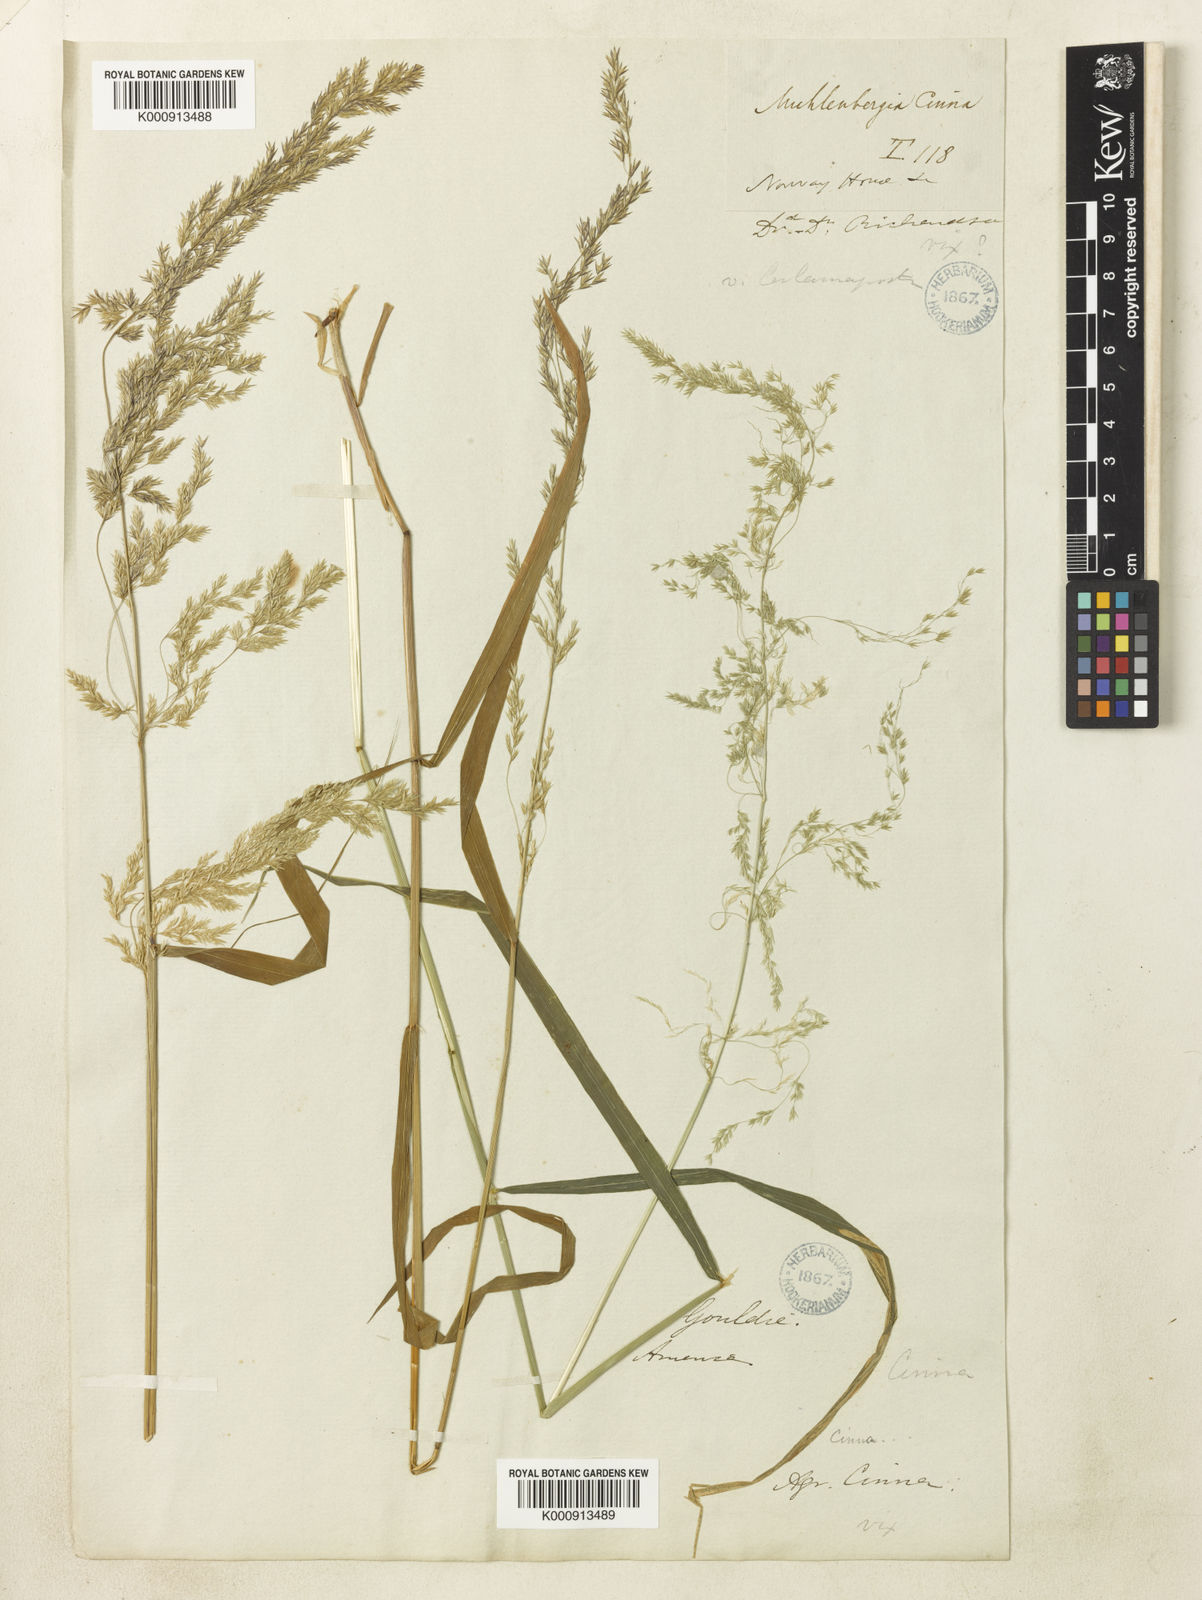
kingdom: Plantae
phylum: Tracheophyta
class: Liliopsida
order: Poales
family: Poaceae
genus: Cinna
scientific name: Cinna latifolia
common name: Drooping woodreed
